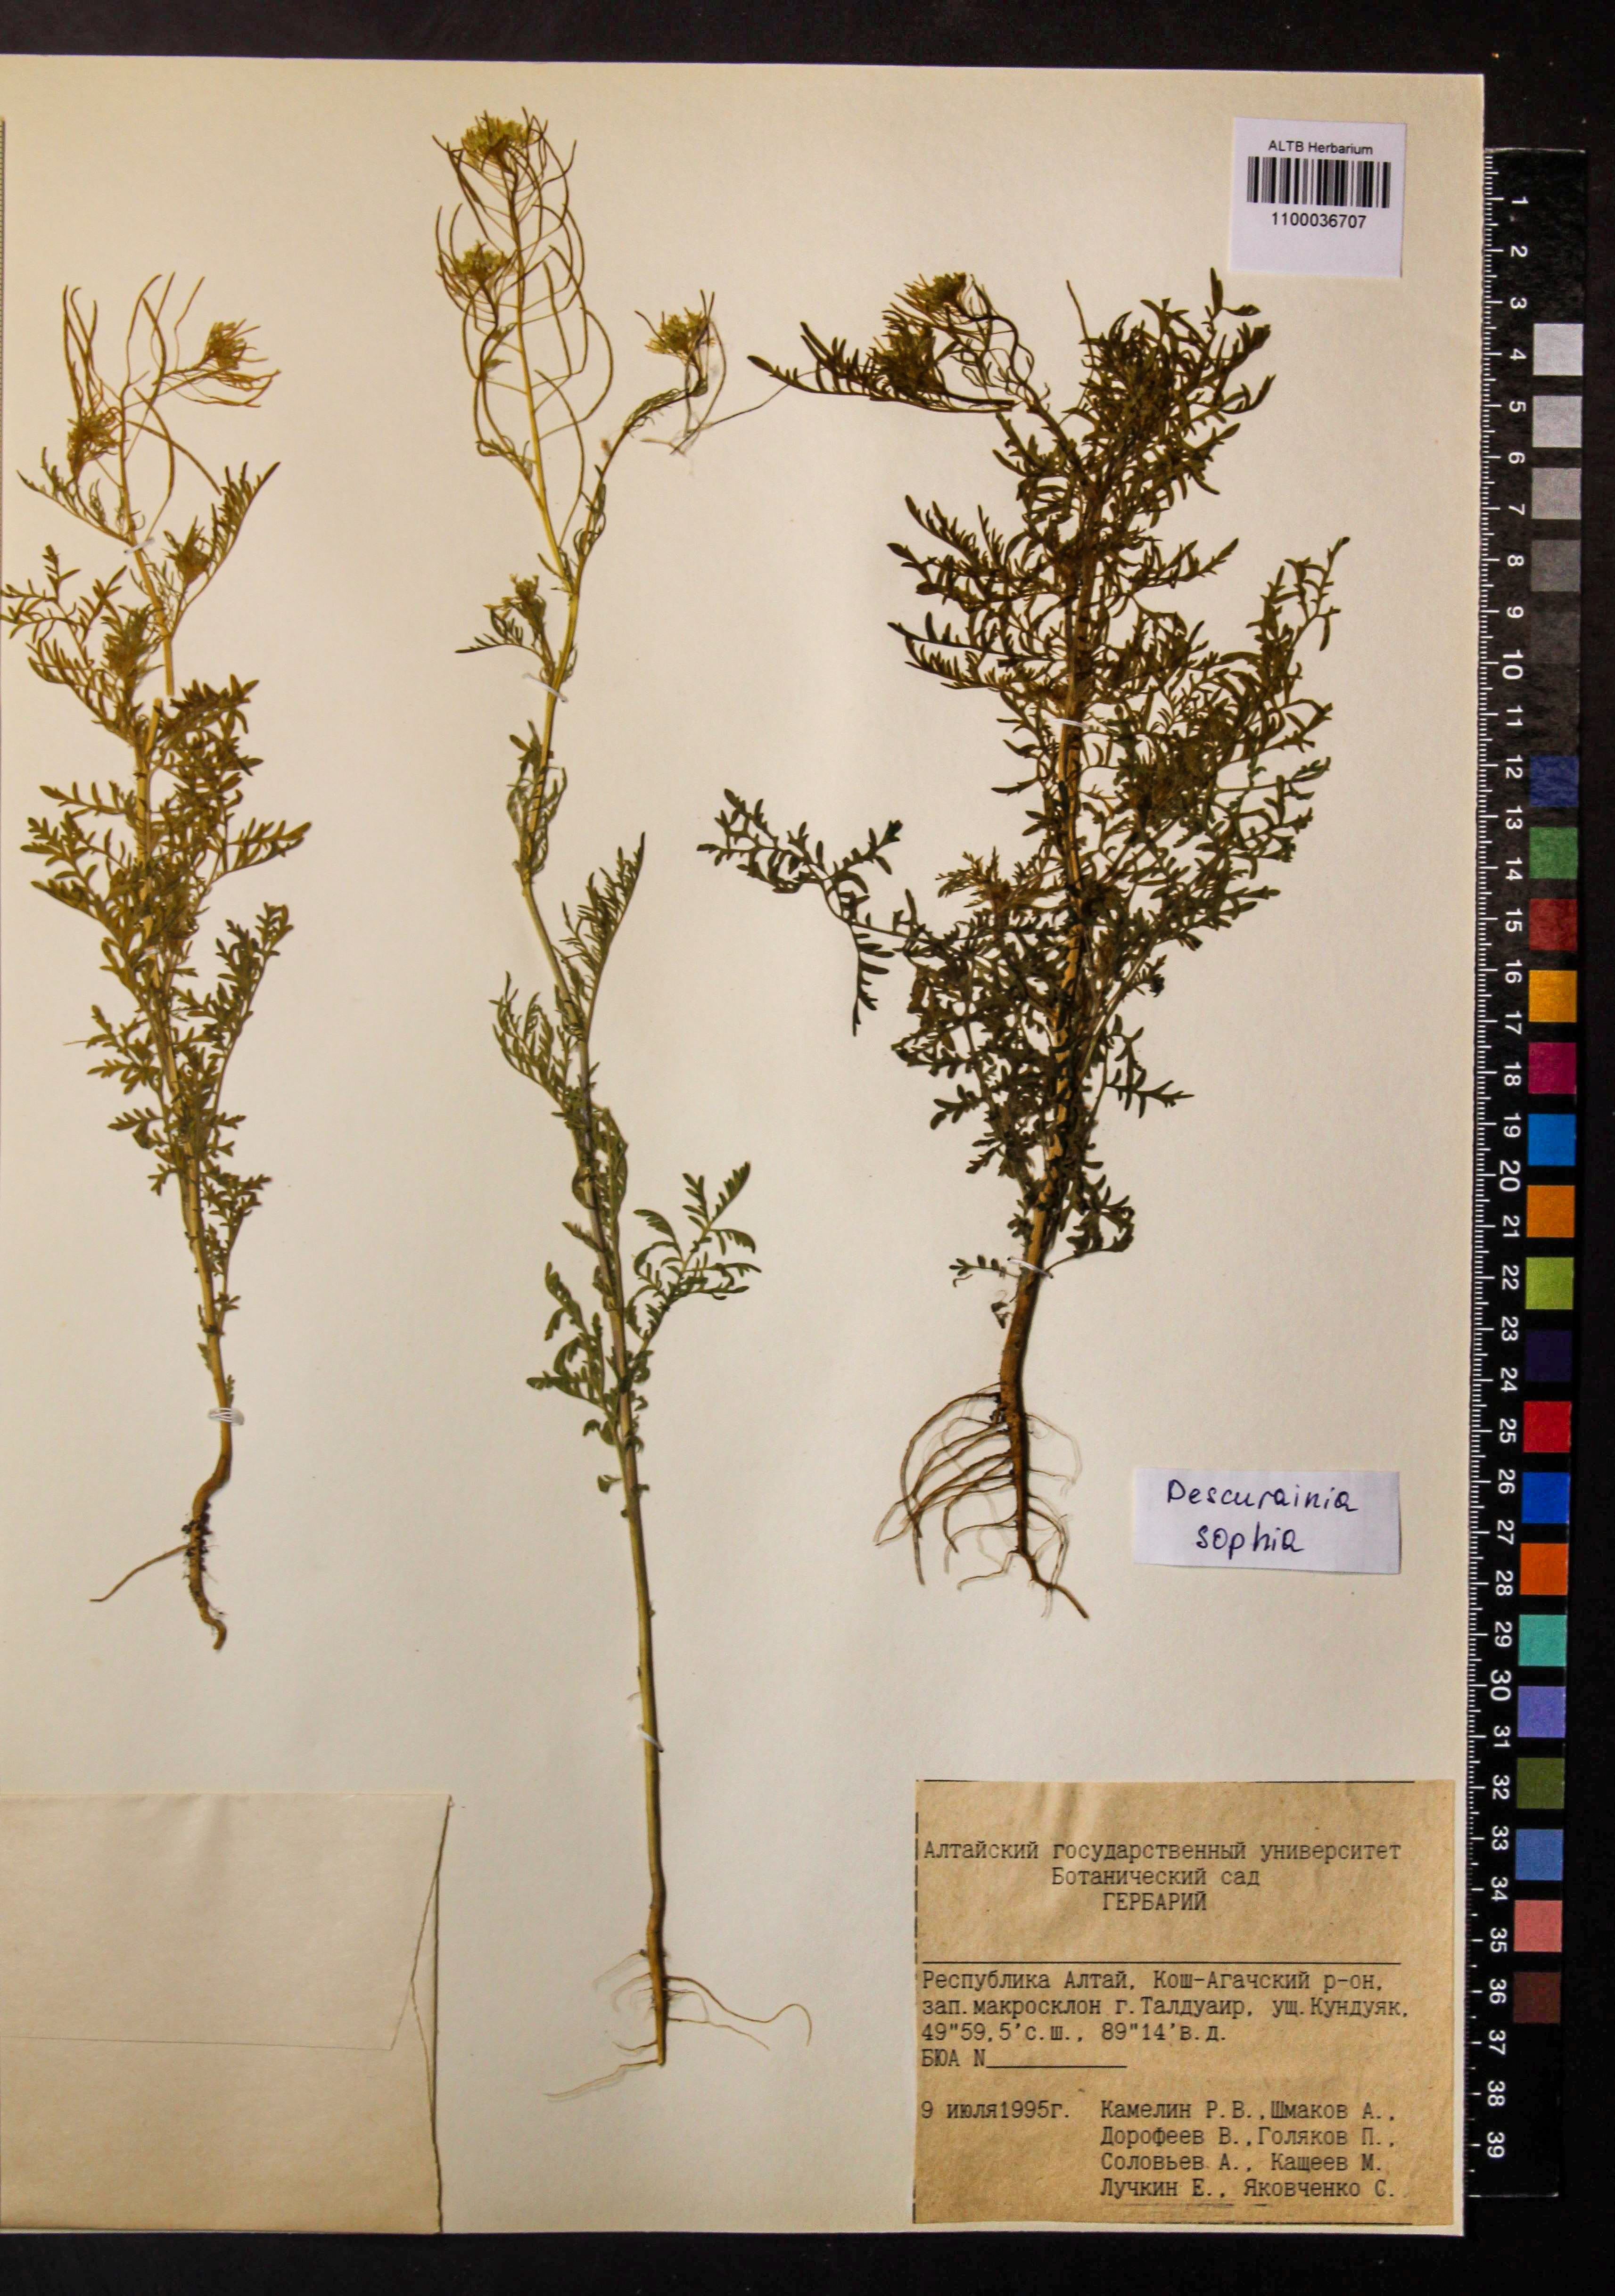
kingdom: Plantae
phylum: Tracheophyta
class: Magnoliopsida
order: Brassicales
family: Brassicaceae
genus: Descurainia
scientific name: Descurainia sophia
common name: Flixweed
